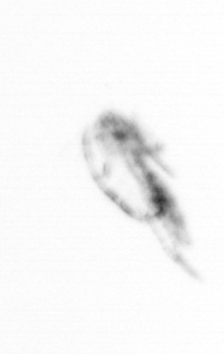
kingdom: Animalia
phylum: Arthropoda
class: Copepoda
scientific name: Copepoda
